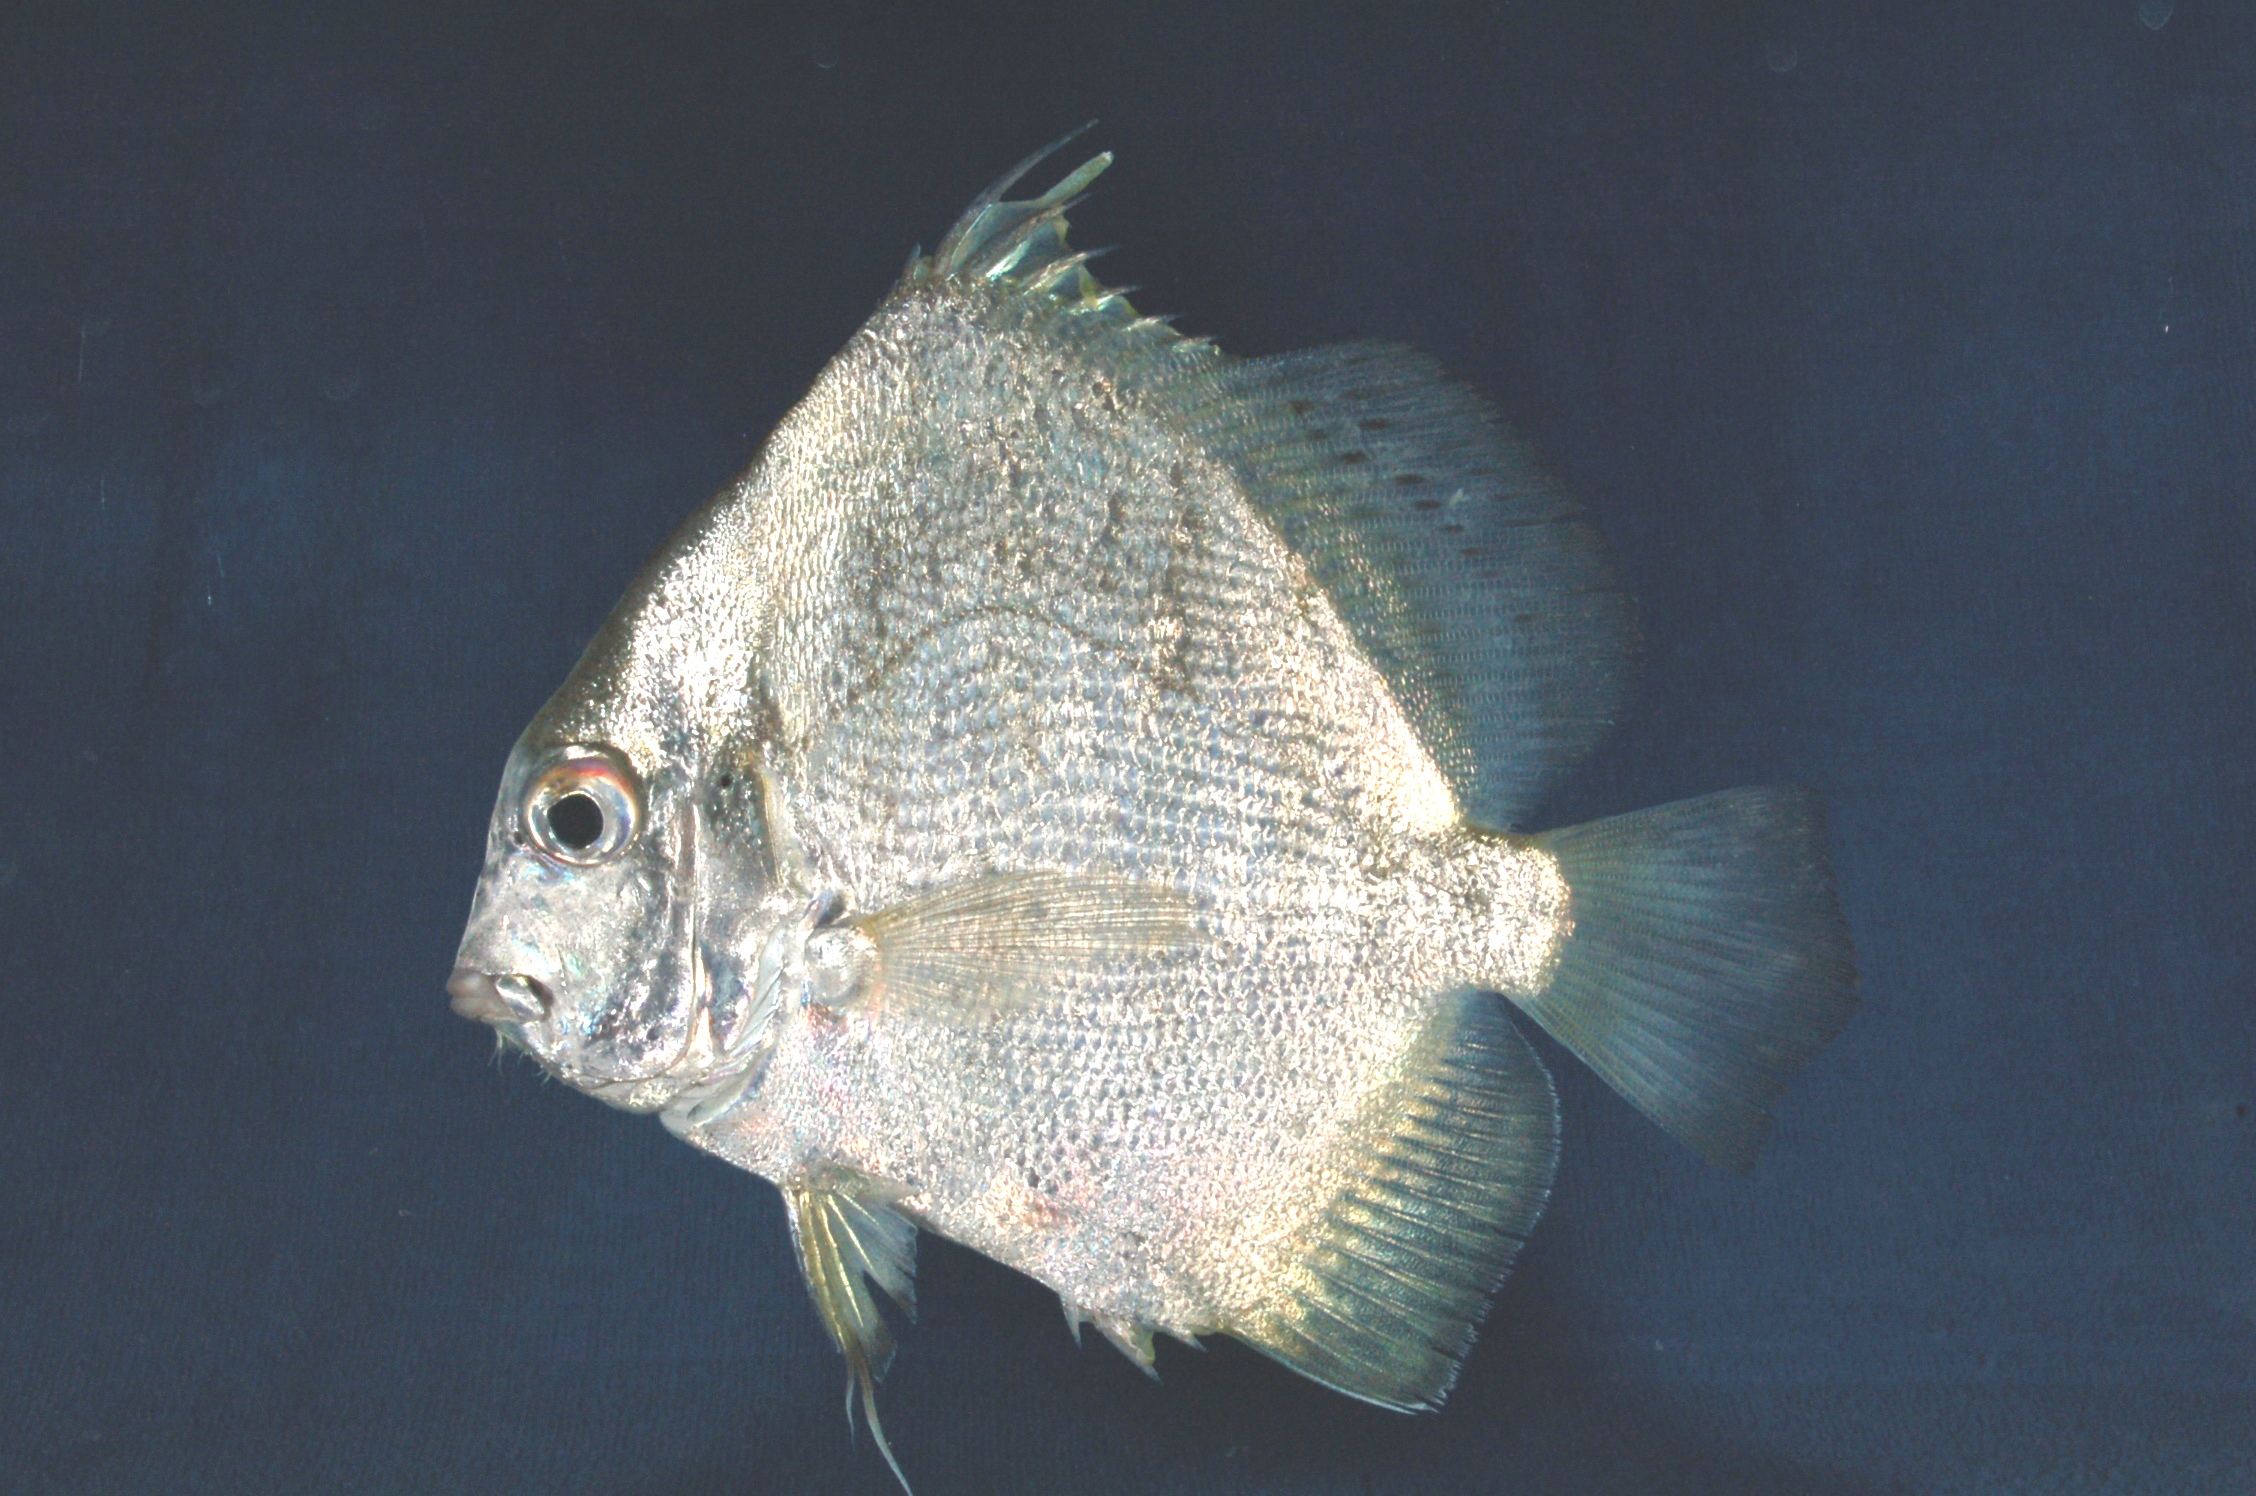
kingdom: Animalia
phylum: Chordata
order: Perciformes
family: Drepaneidae
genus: Drepane
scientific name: Drepane longimana
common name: Concertina fish
